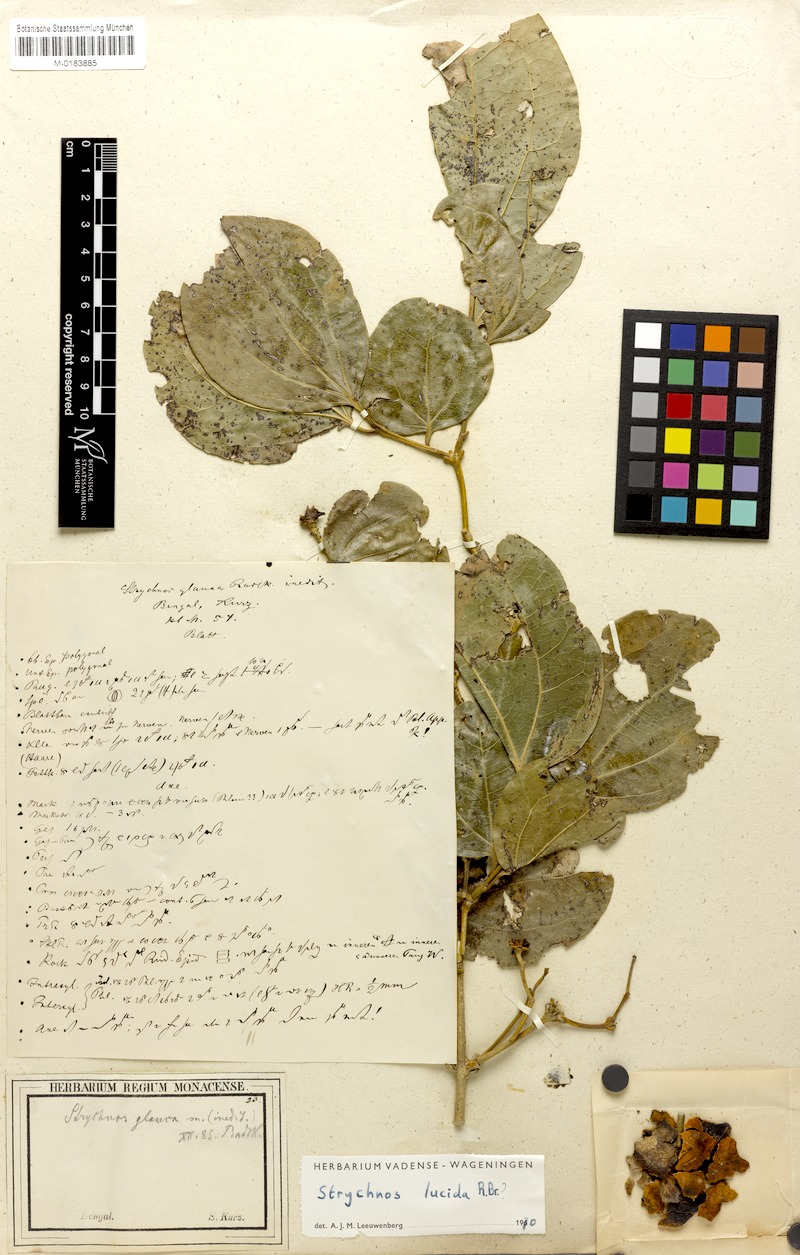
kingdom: Plantae
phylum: Tracheophyta
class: Magnoliopsida
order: Gentianales
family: Loganiaceae
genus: Strychnos
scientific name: Strychnos lucida
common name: Strychninebush
